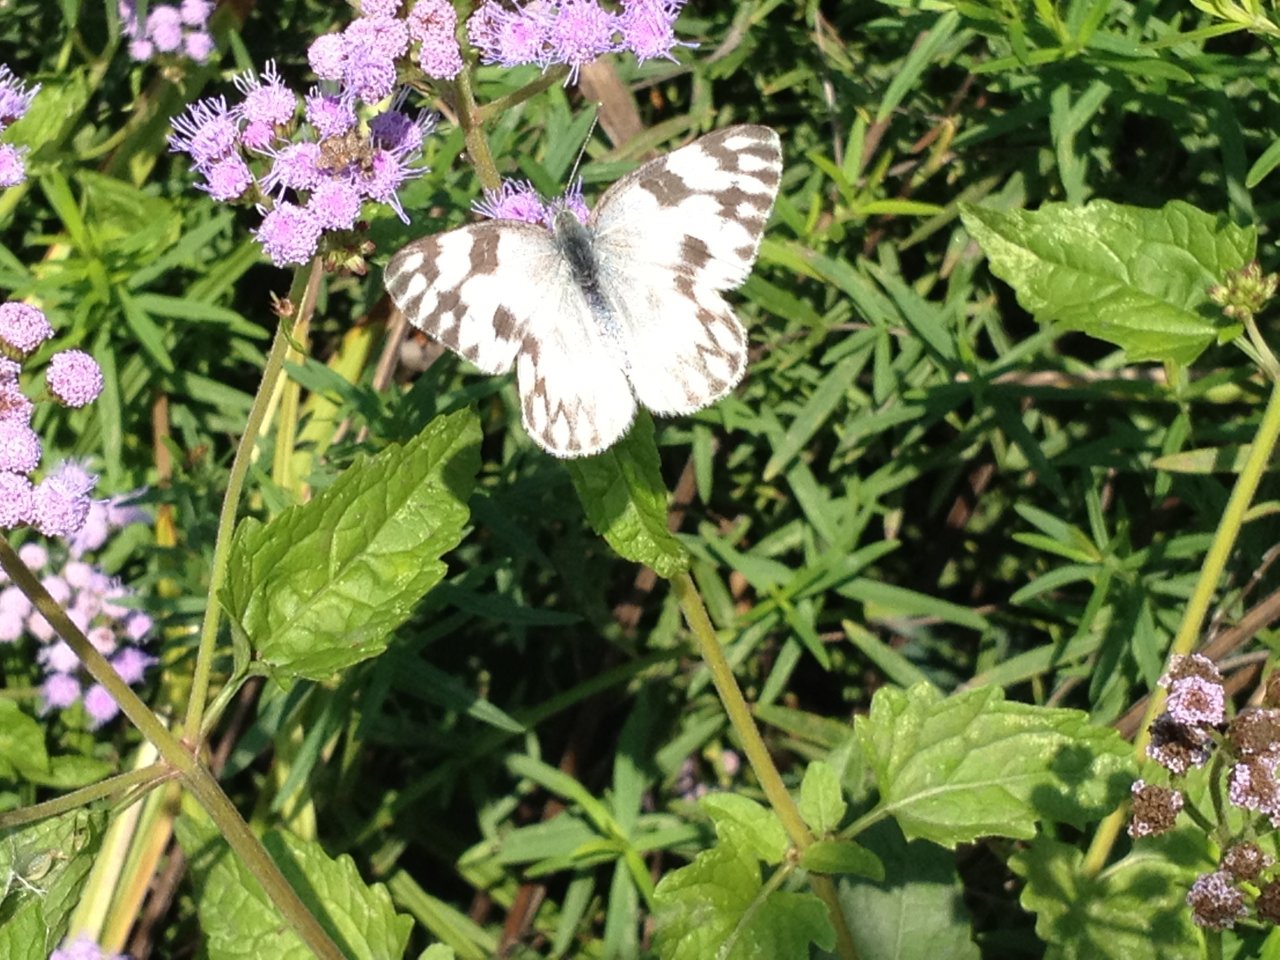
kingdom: Animalia
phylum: Arthropoda
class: Insecta
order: Lepidoptera
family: Pieridae
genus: Pontia
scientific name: Pontia protodice
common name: Checkered White
